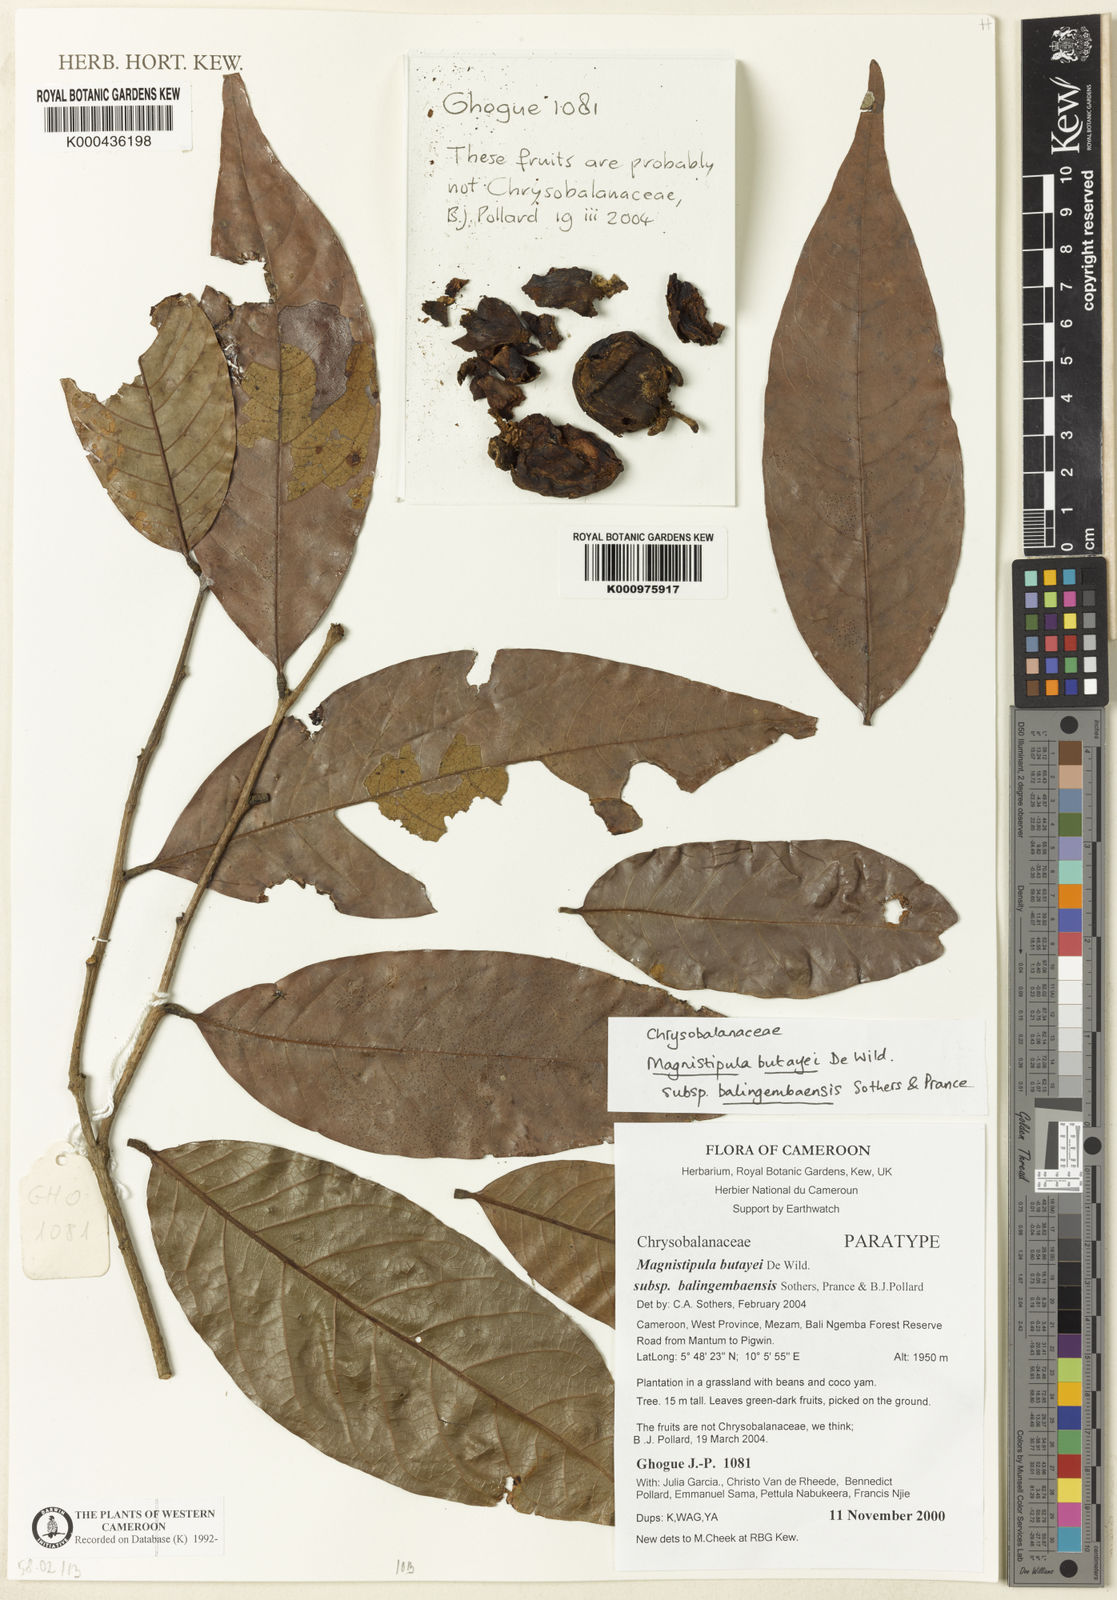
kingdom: Plantae
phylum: Tracheophyta
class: Magnoliopsida
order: Malpighiales
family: Chrysobalanaceae
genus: Magnistipula
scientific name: Magnistipula butayei
